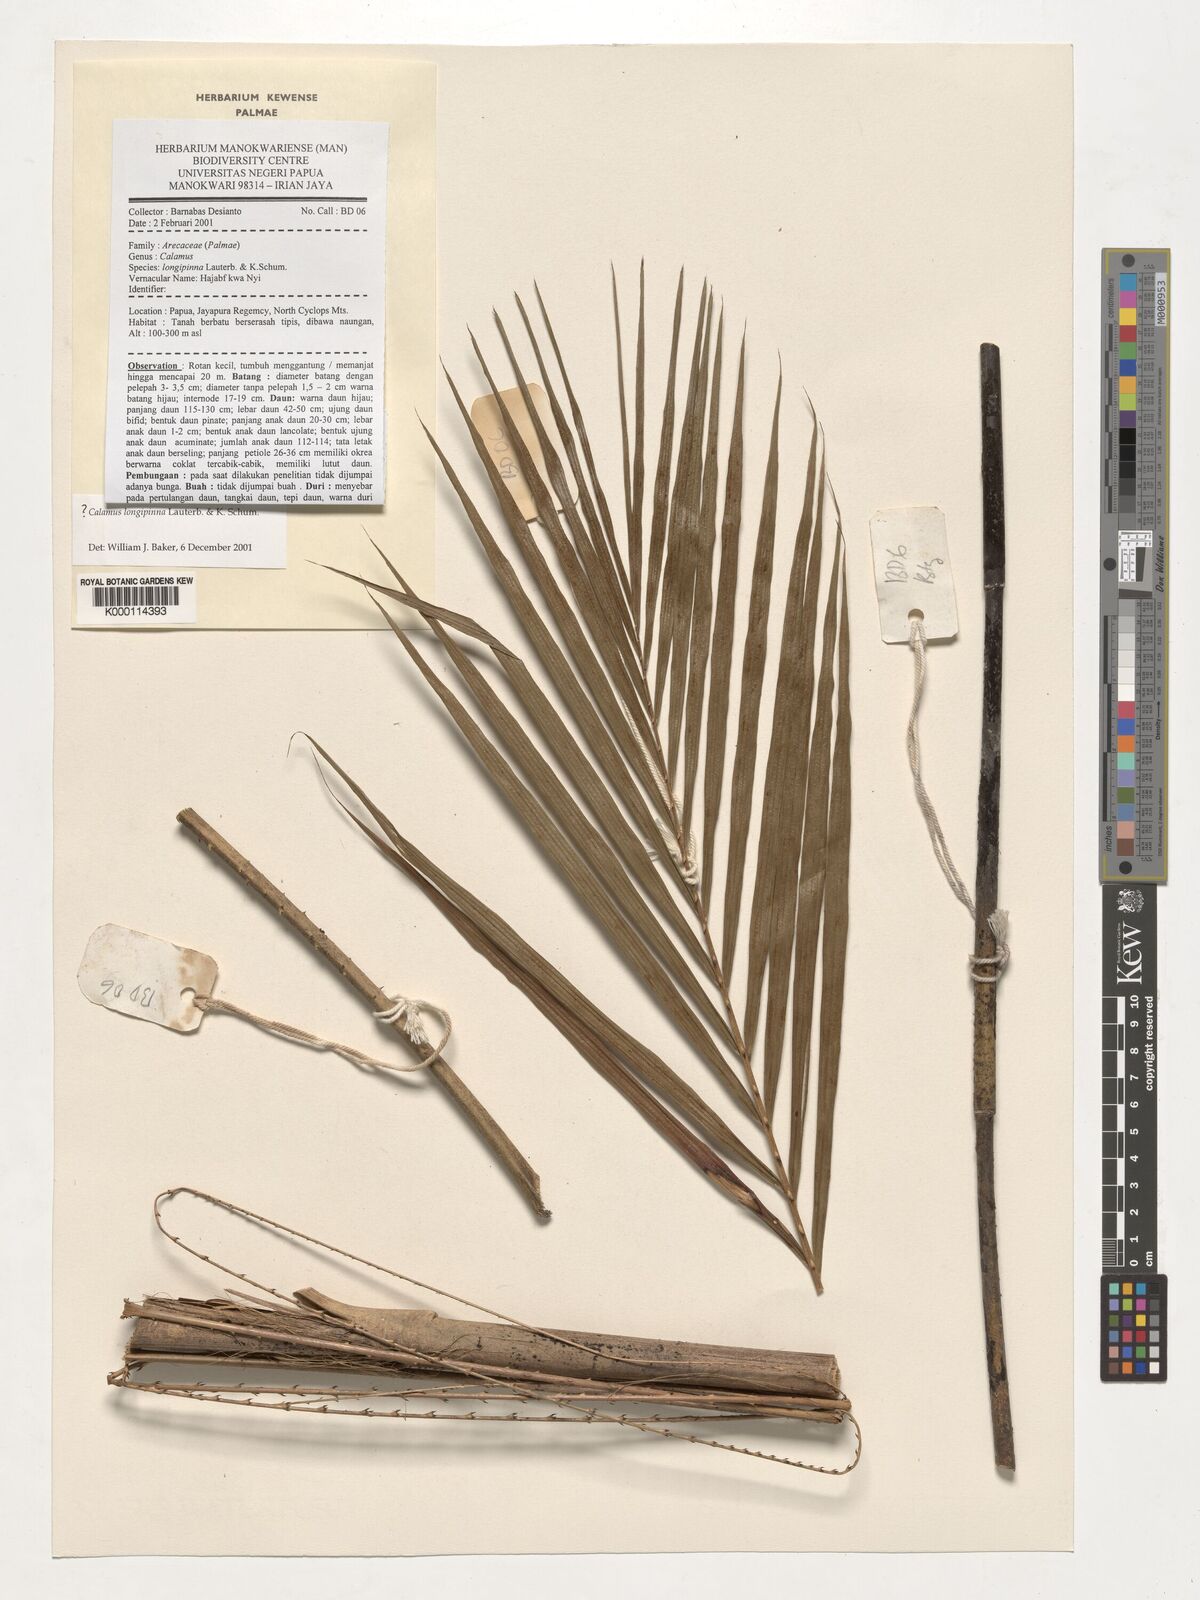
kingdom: Plantae
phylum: Tracheophyta
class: Liliopsida
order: Arecales
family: Arecaceae
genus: Calamus
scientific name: Calamus
